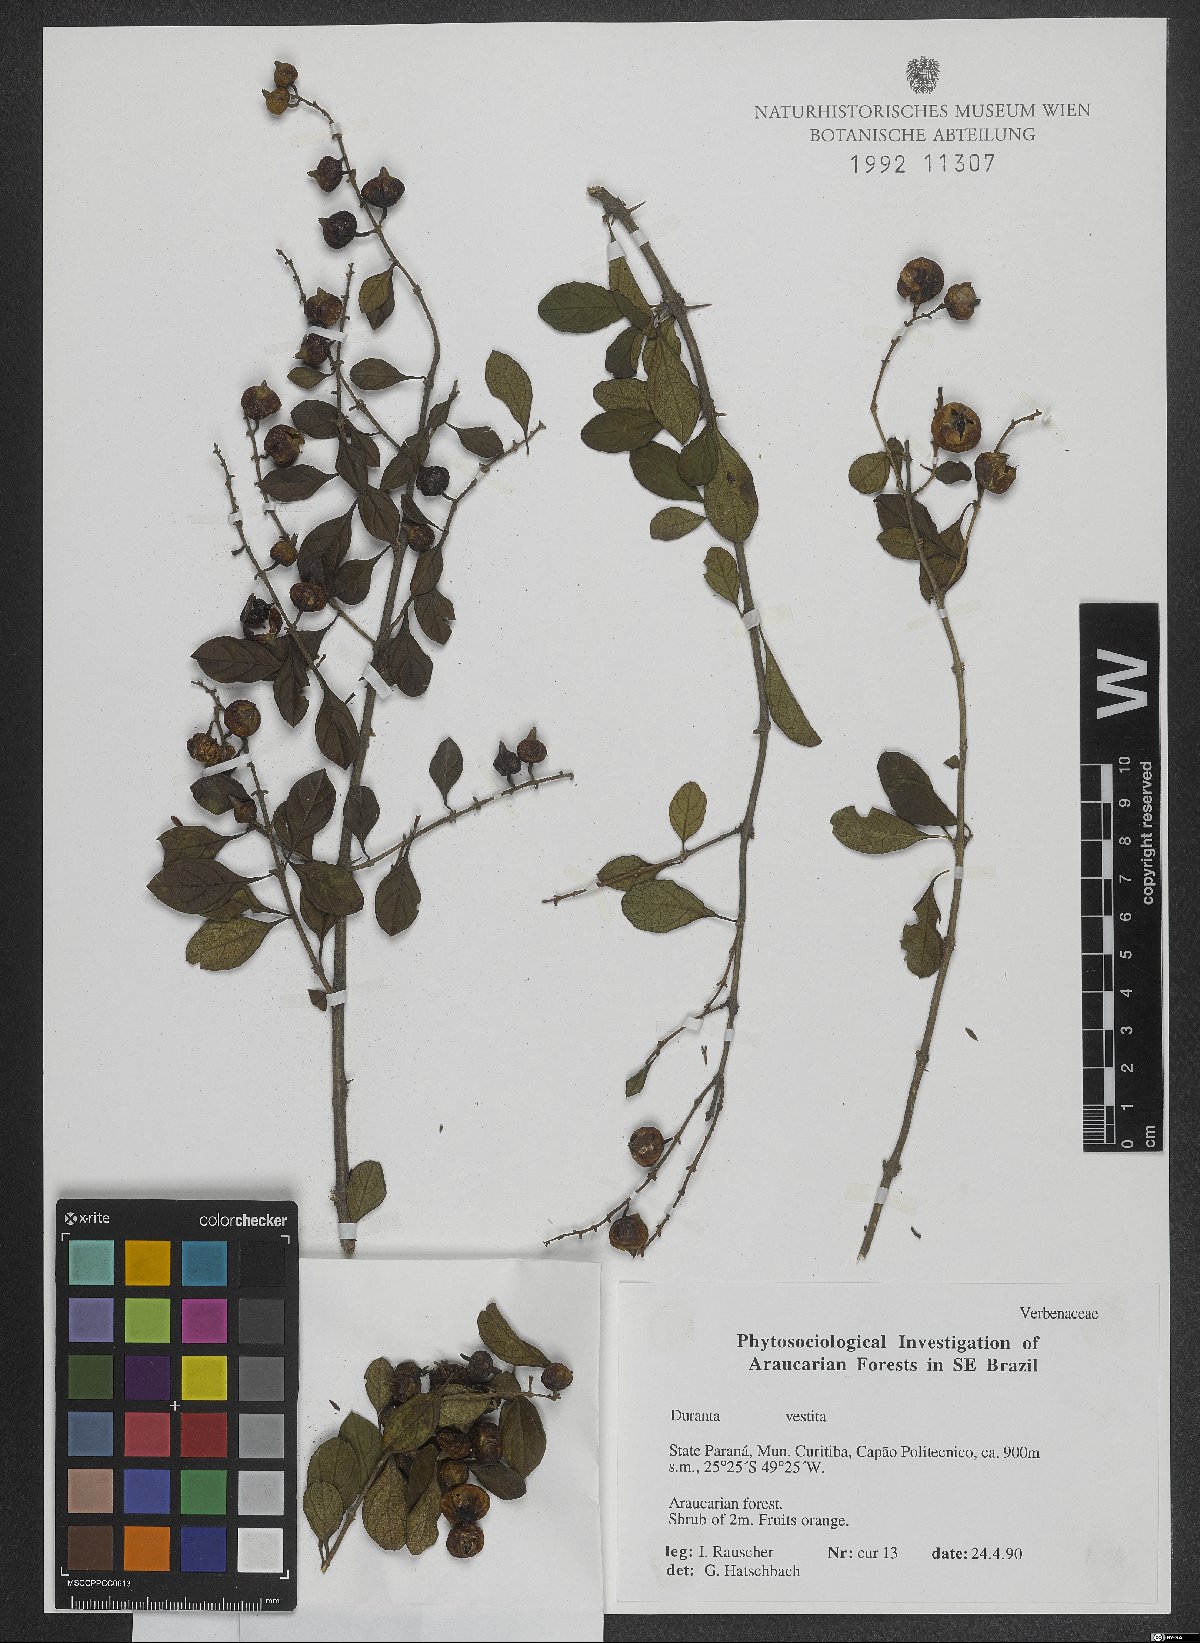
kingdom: Plantae
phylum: Tracheophyta
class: Magnoliopsida
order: Lamiales
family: Verbenaceae
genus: Duranta
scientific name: Duranta vestita
